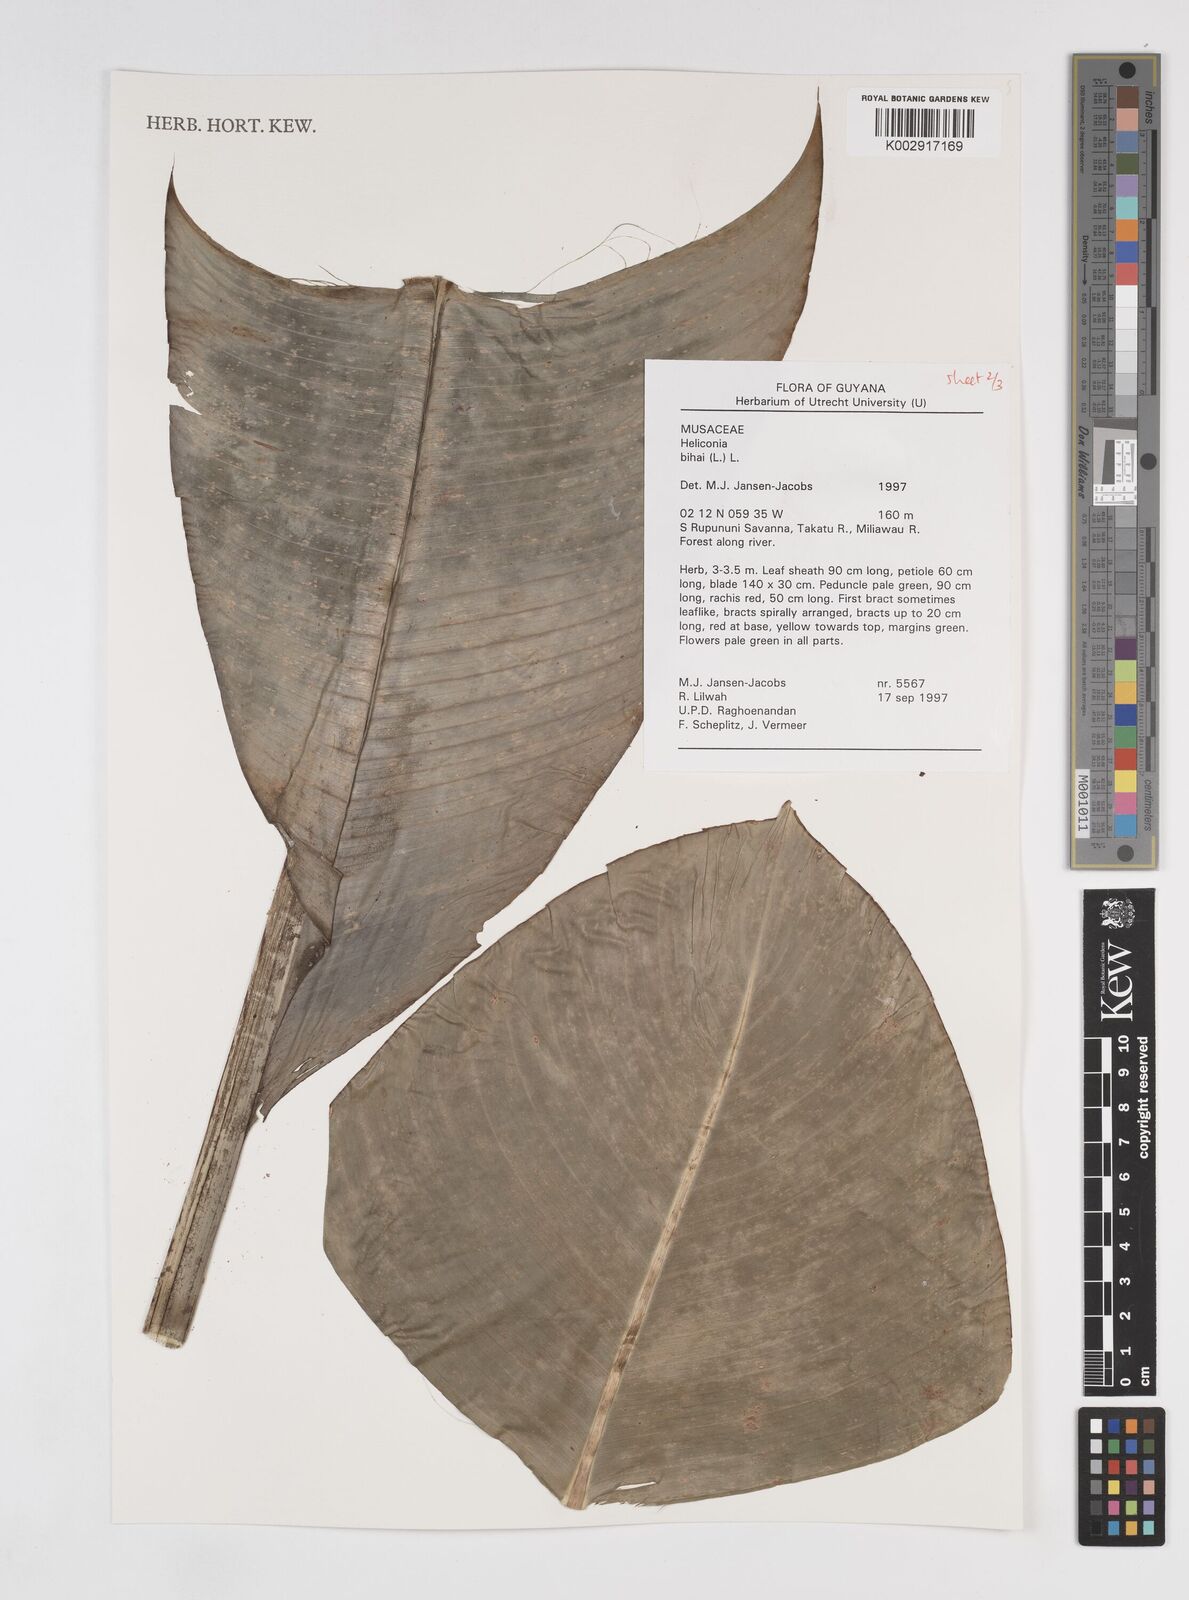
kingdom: Plantae
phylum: Tracheophyta
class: Liliopsida
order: Zingiberales
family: Heliconiaceae
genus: Heliconia
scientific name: Heliconia bihai
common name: Macaw flower
